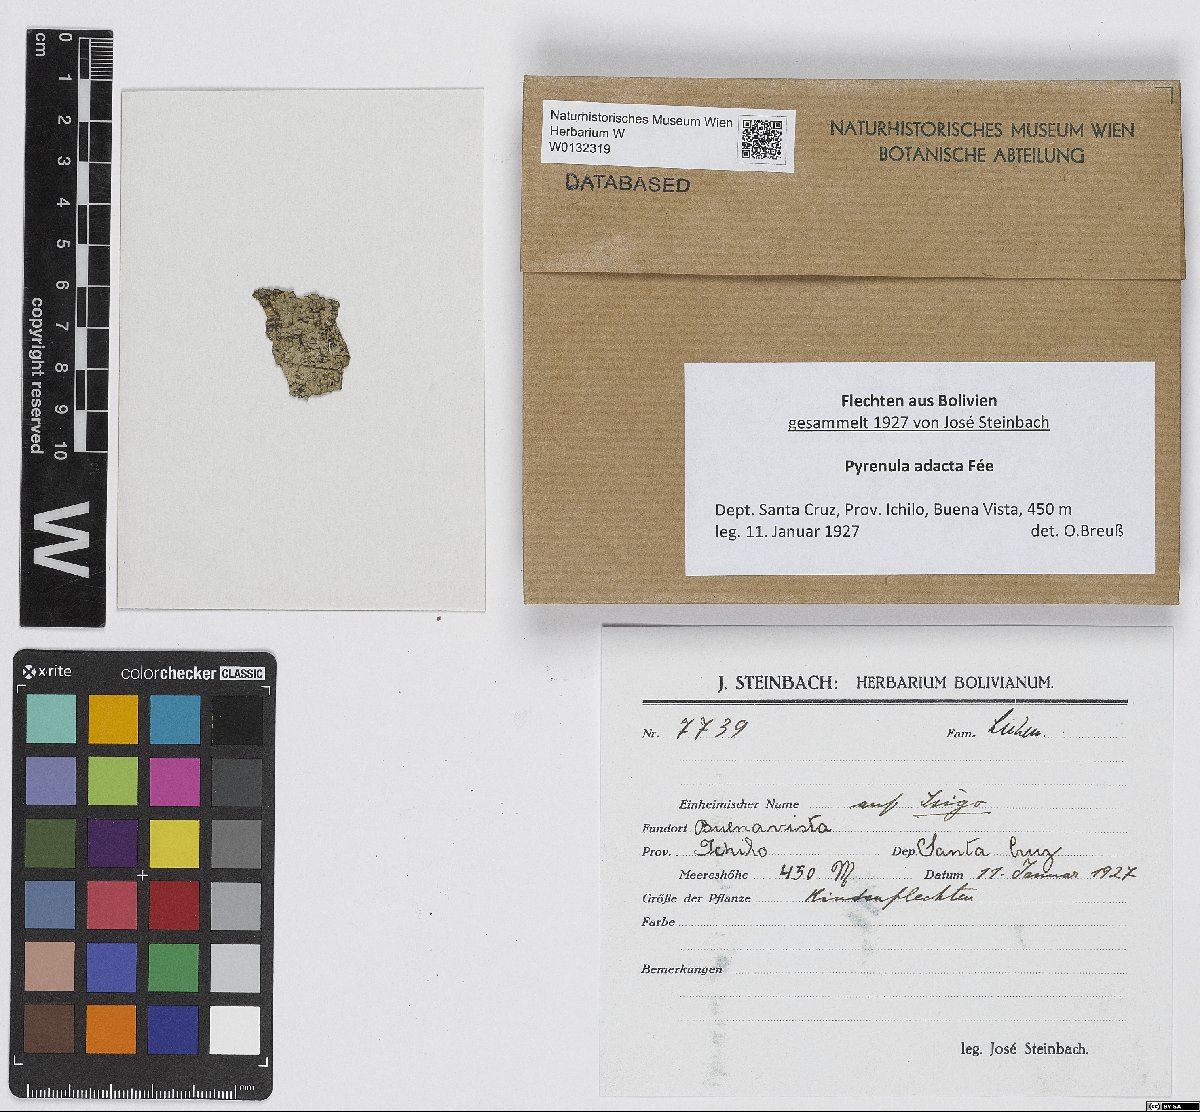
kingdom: Fungi
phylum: Ascomycota
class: Eurotiomycetes
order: Pyrenulales
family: Pyrenulaceae
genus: Pyrenula
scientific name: Pyrenula adacta
